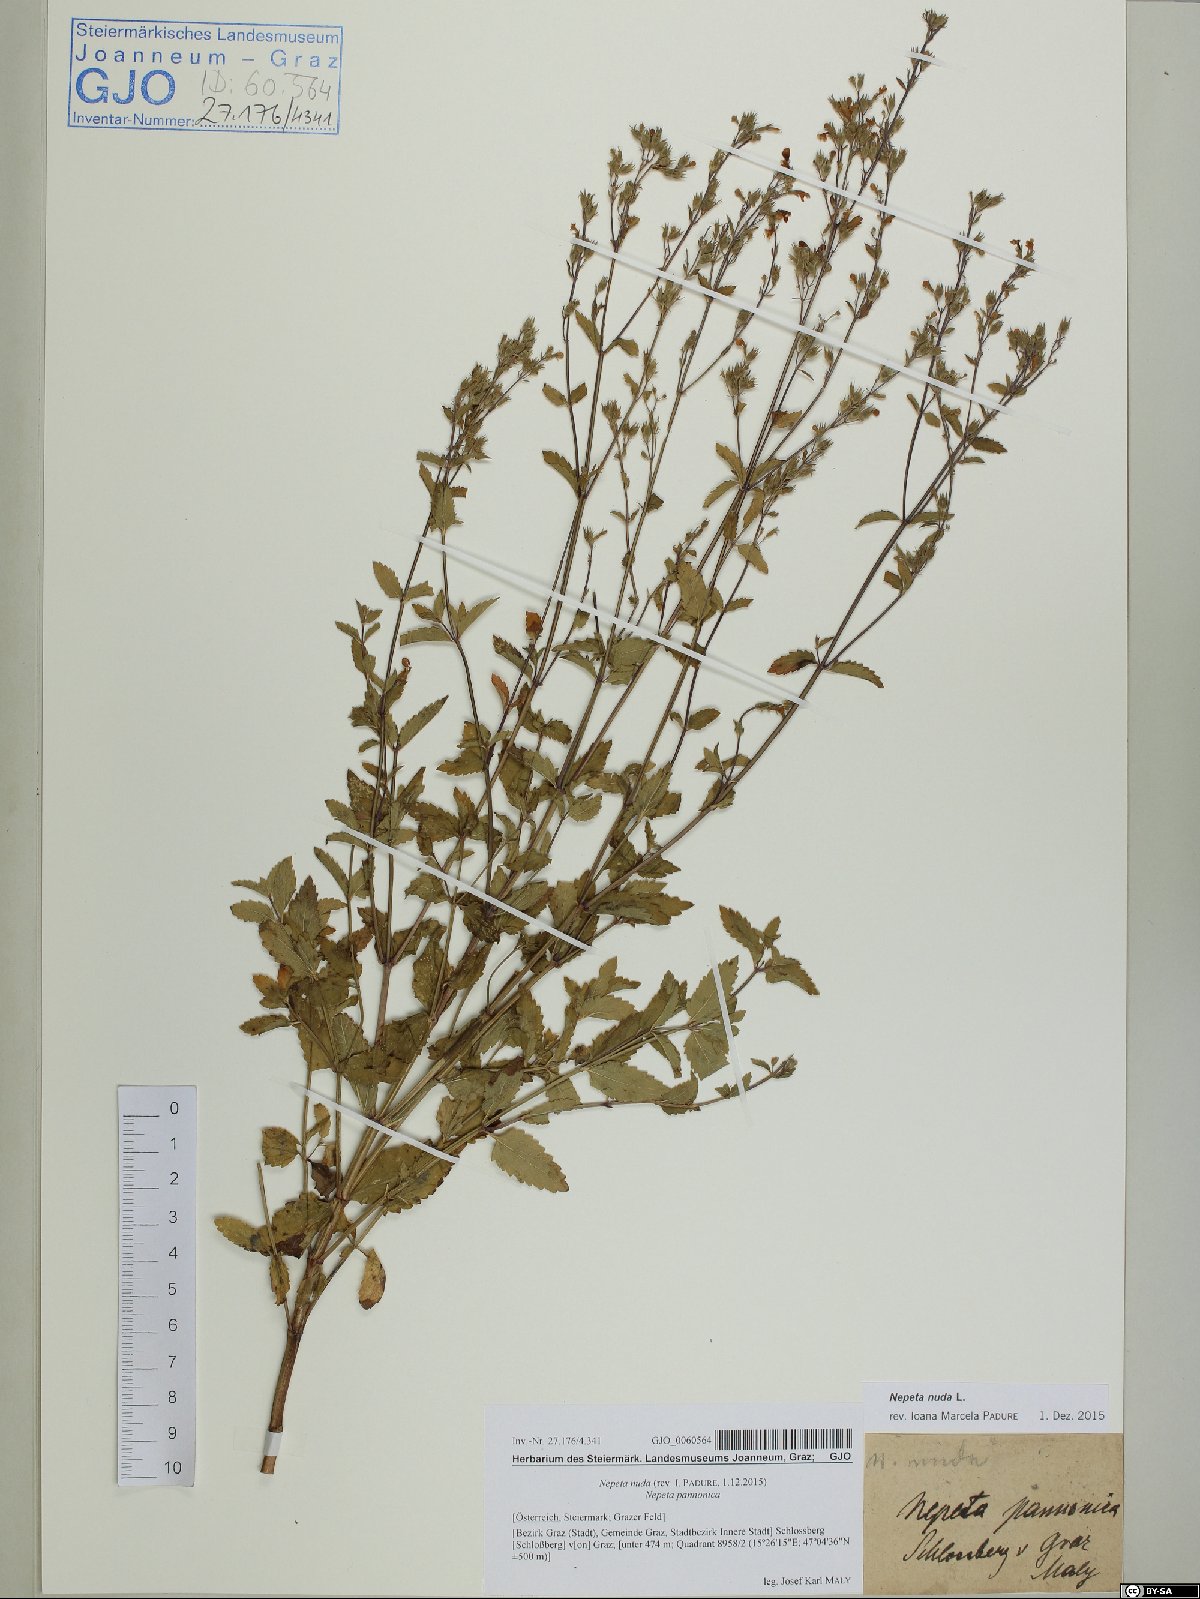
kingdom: Plantae
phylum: Tracheophyta
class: Magnoliopsida
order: Lamiales
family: Lamiaceae
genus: Nepeta
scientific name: Nepeta nuda
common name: Hairless catmint
